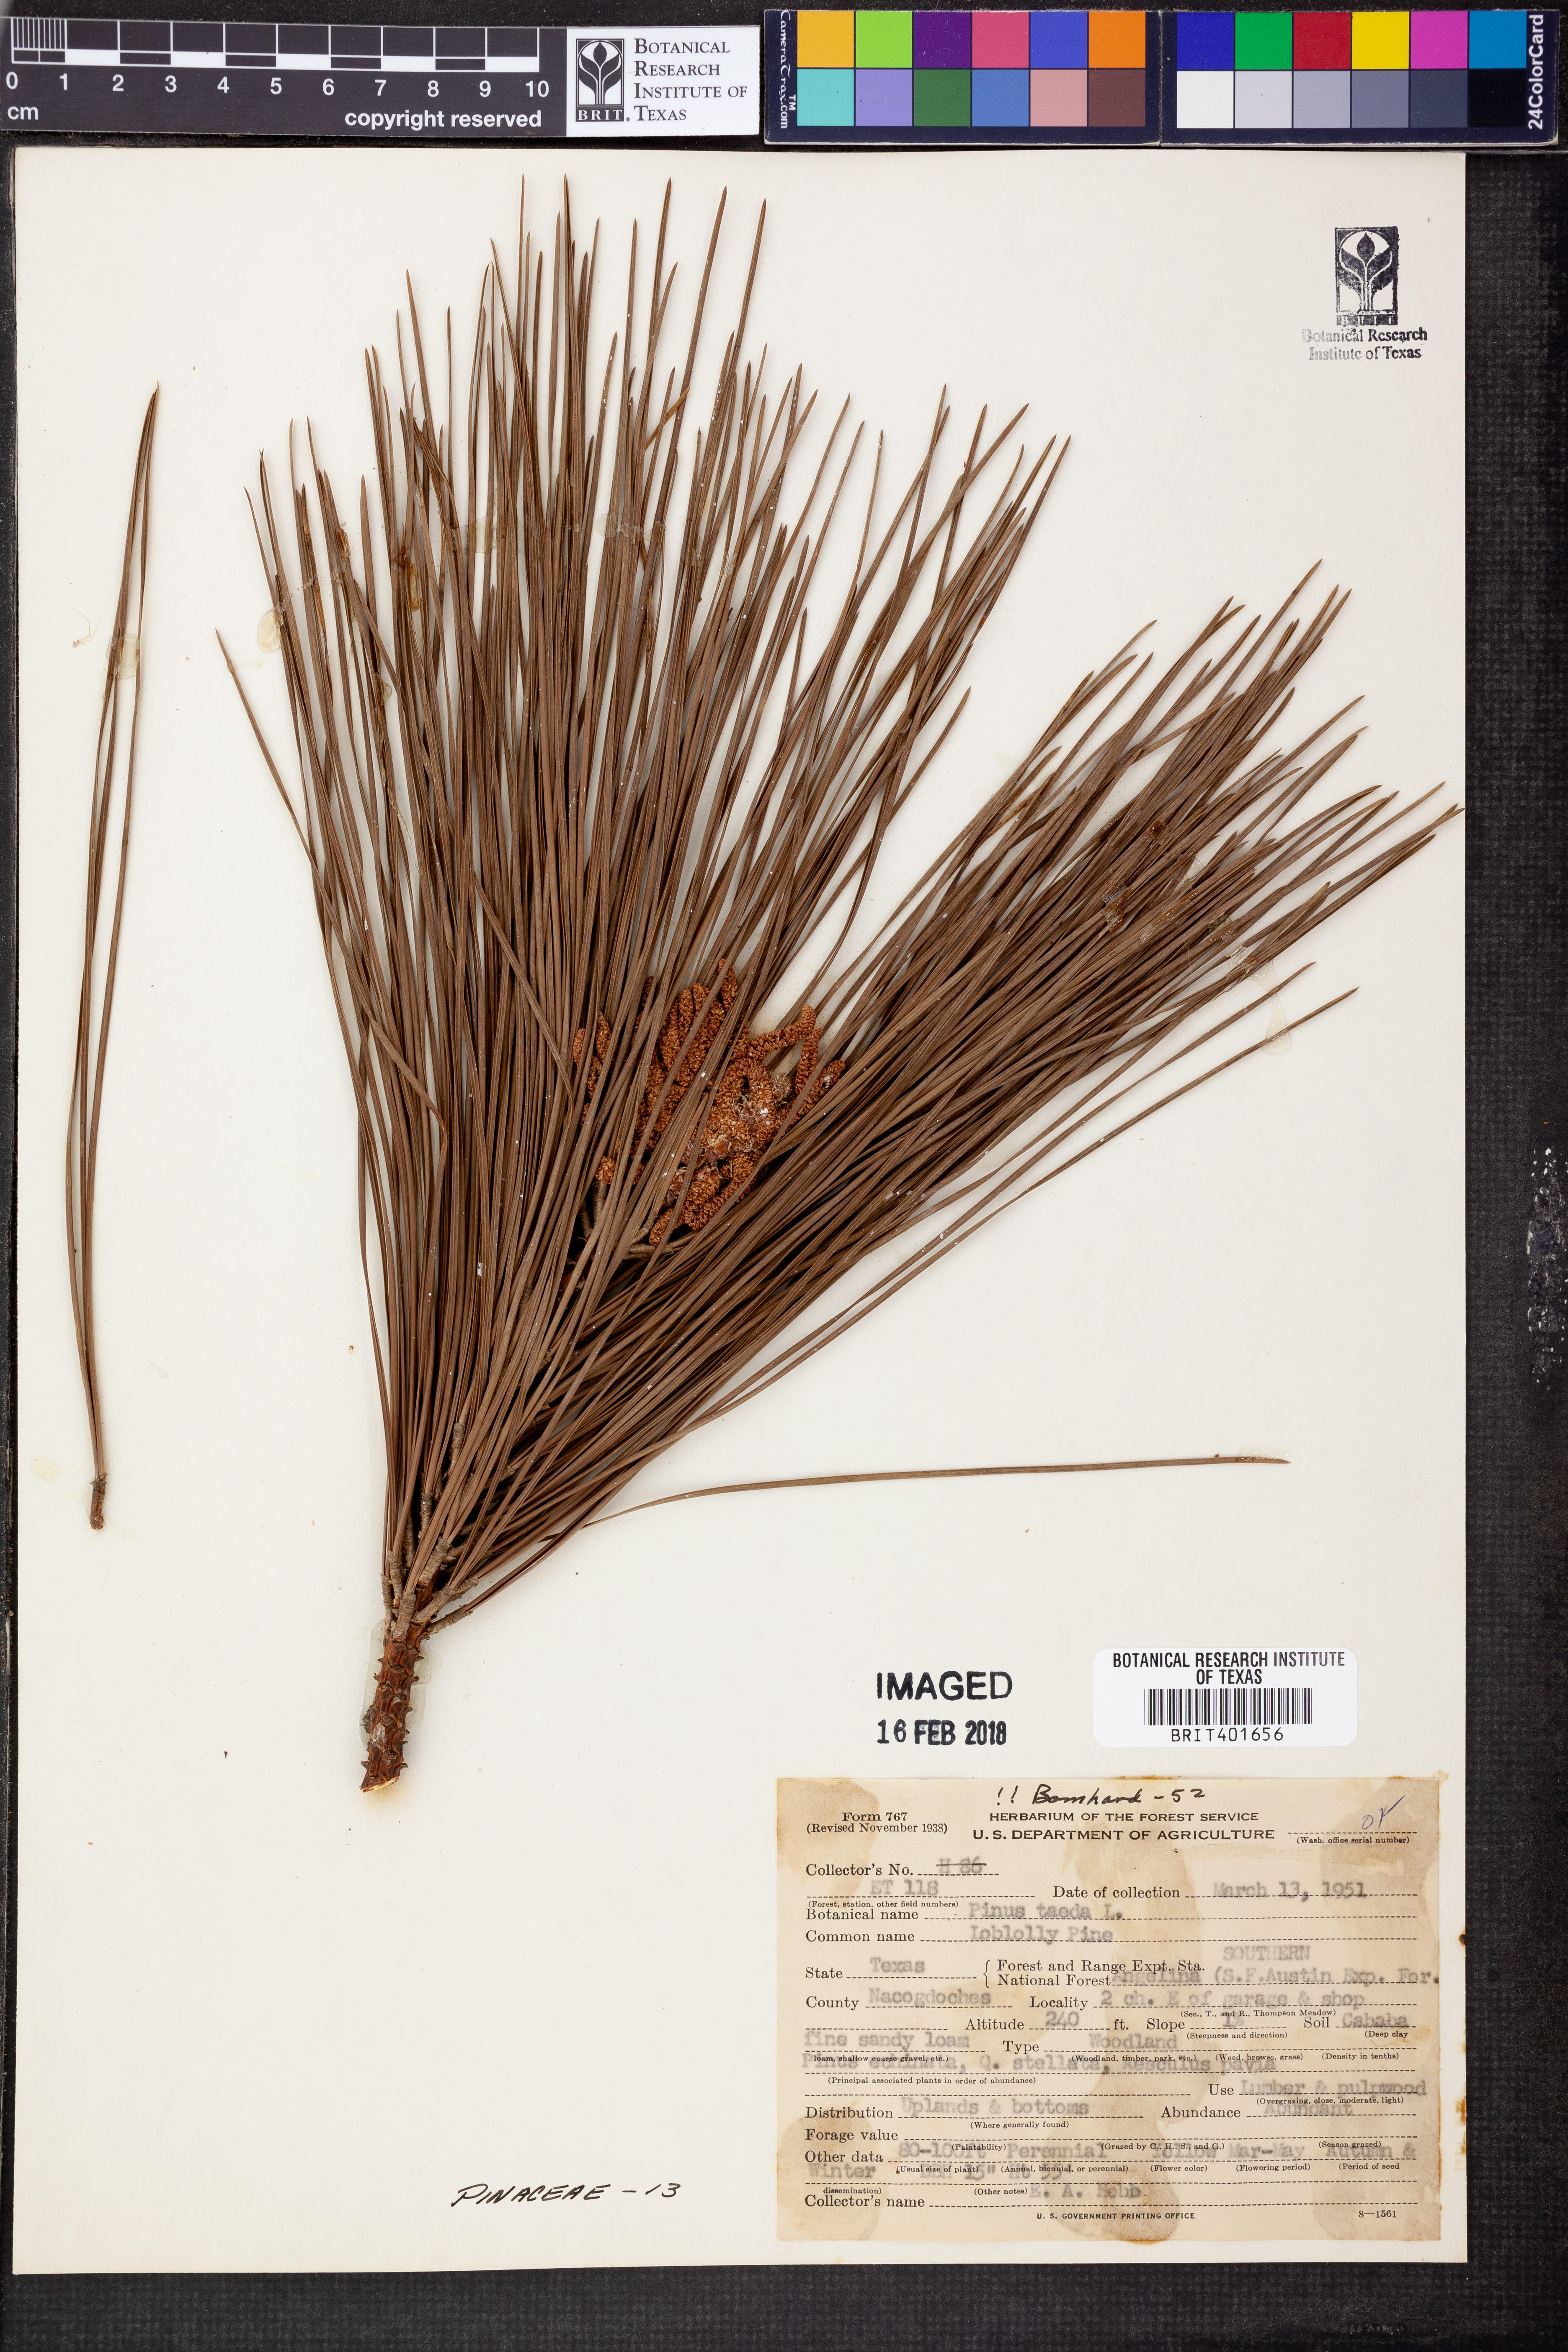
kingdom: Plantae
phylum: Tracheophyta
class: Pinopsida
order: Pinales
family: Pinaceae
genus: Pinus
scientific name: Pinus taeda
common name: Loblolly pine
